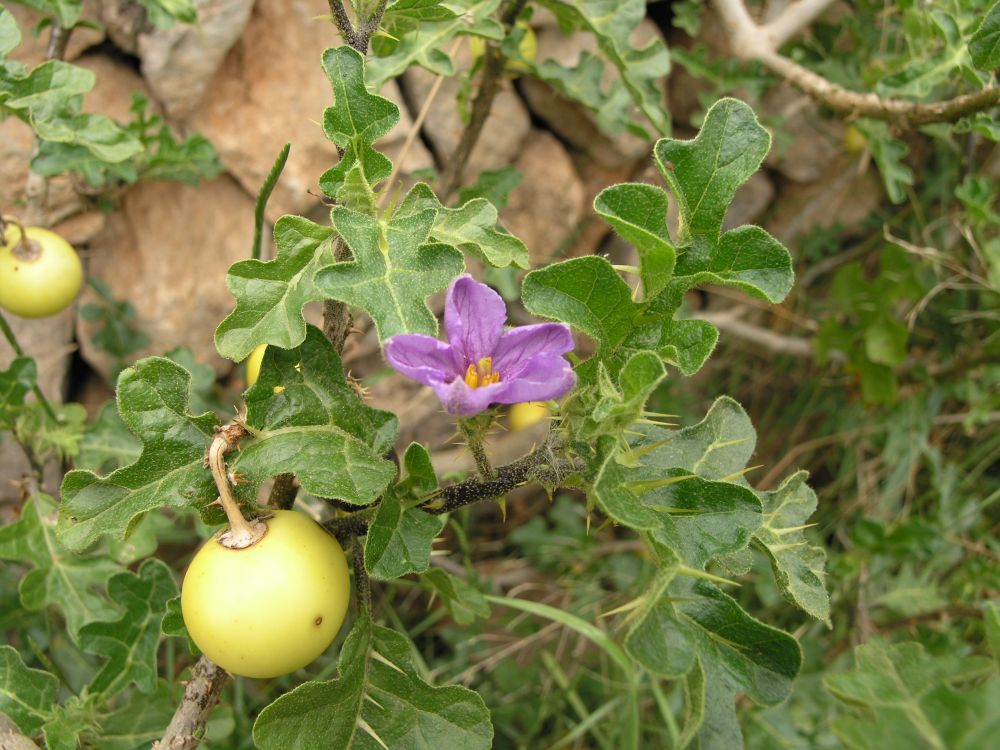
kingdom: Plantae
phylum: Tracheophyta
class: Magnoliopsida
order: Solanales
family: Solanaceae
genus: Solanum
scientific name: Solanum linnaeanum
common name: Nightshade
